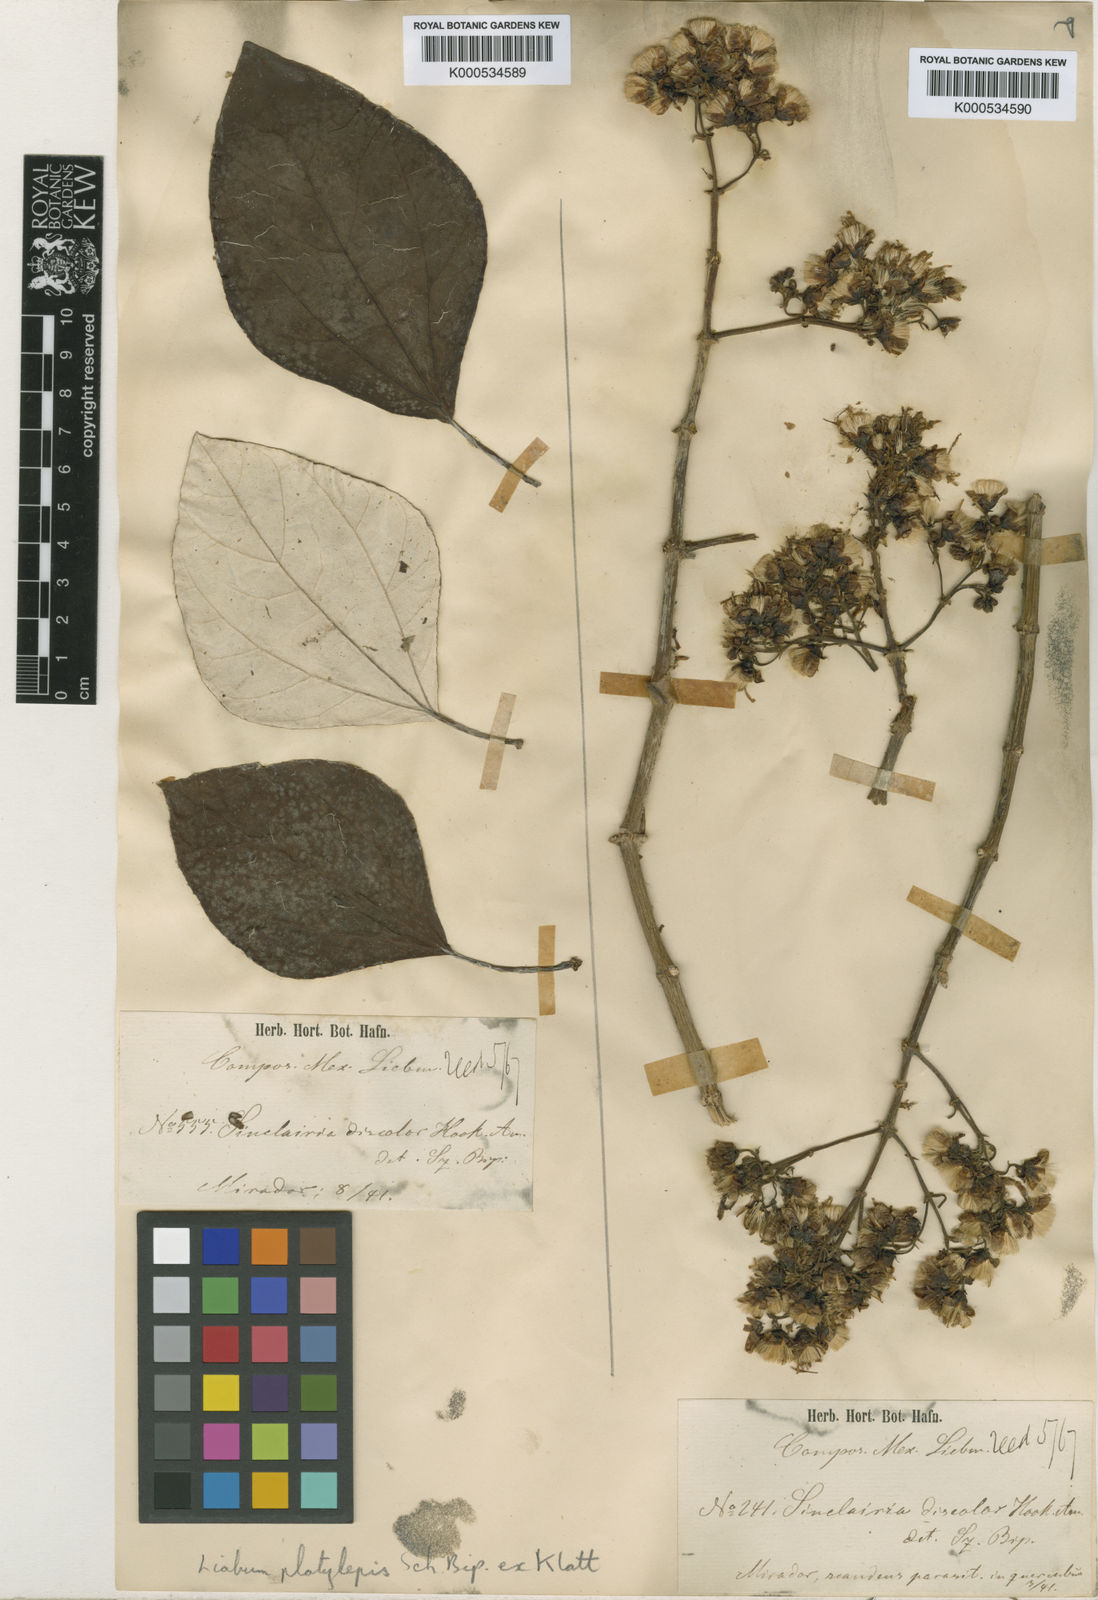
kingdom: Plantae
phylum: Tracheophyta
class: Magnoliopsida
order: Asterales
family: Asteraceae
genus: Sinclairia
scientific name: Sinclairia discolor
